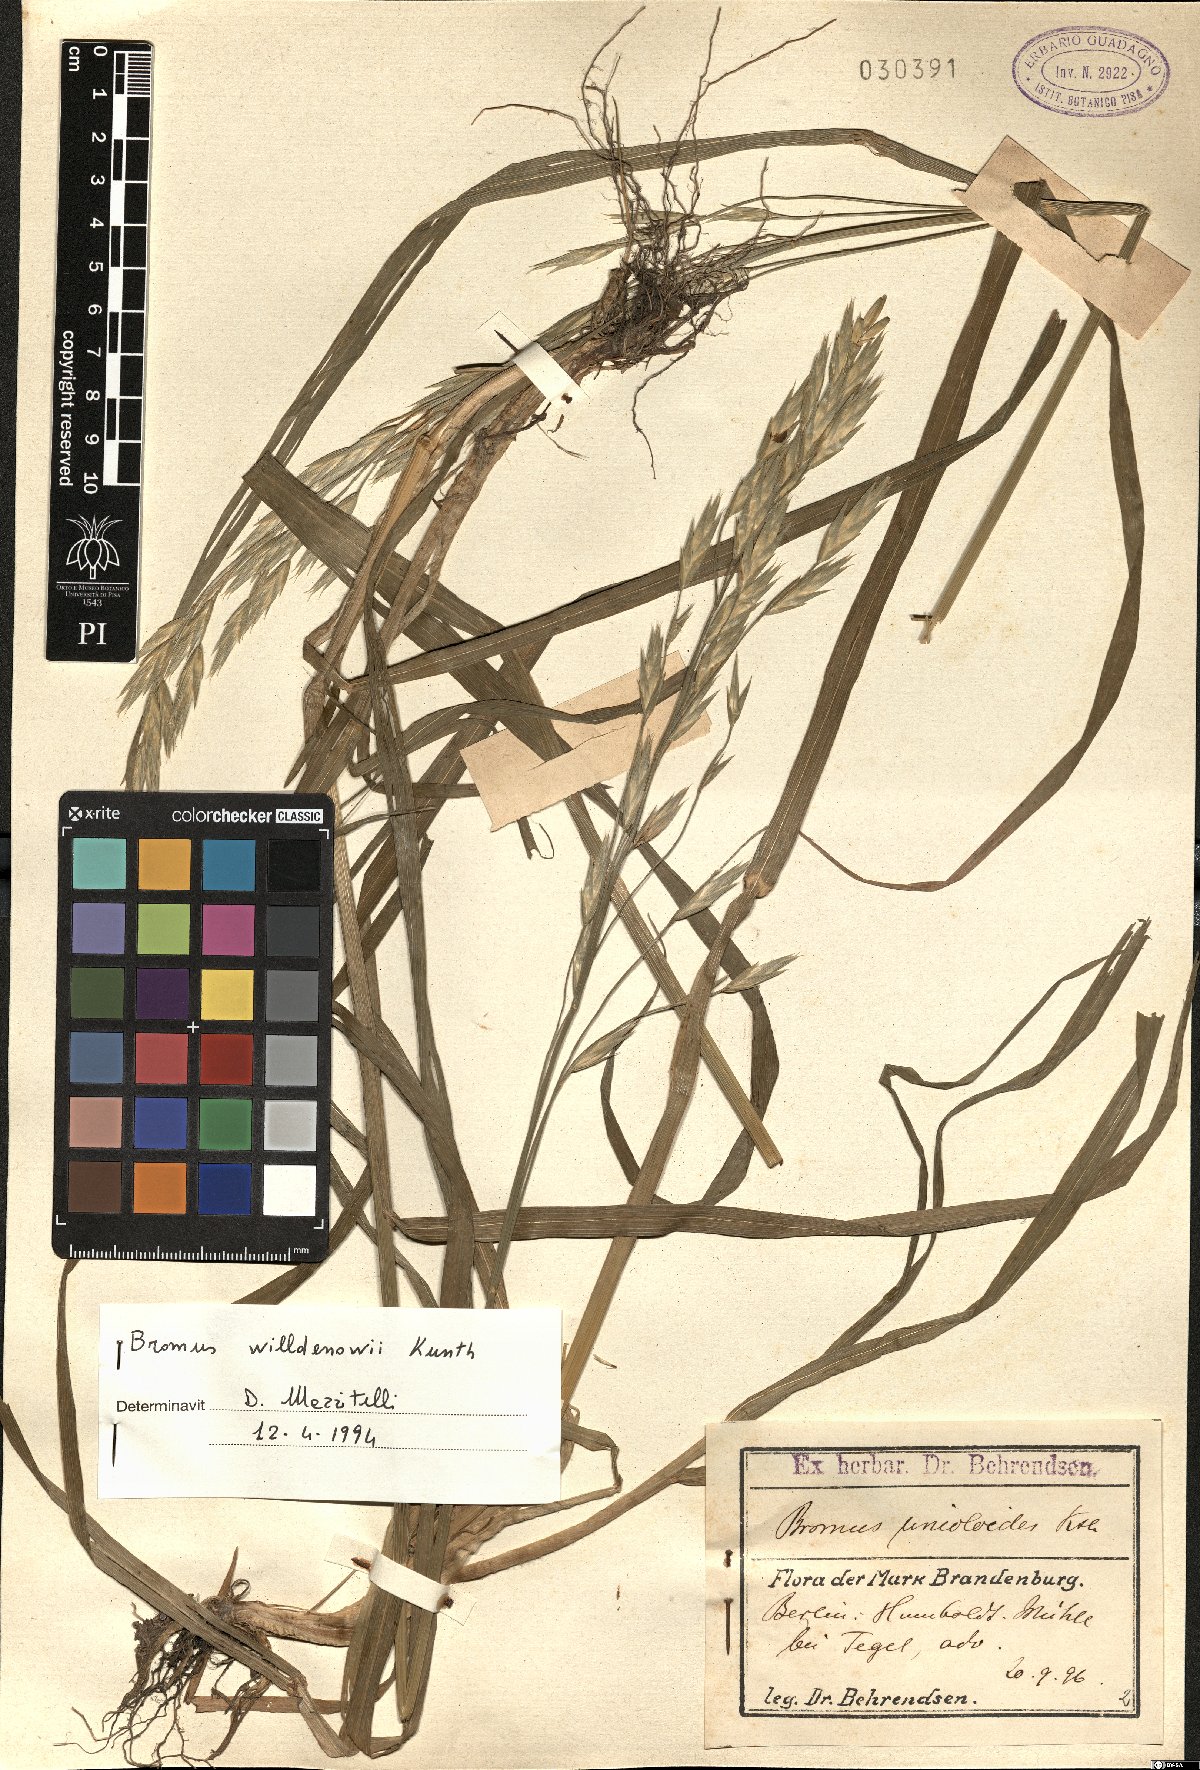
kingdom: Plantae
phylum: Tracheophyta
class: Liliopsida
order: Poales
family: Poaceae
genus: Bromus
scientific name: Bromus catharticus
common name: Rescuegrass
